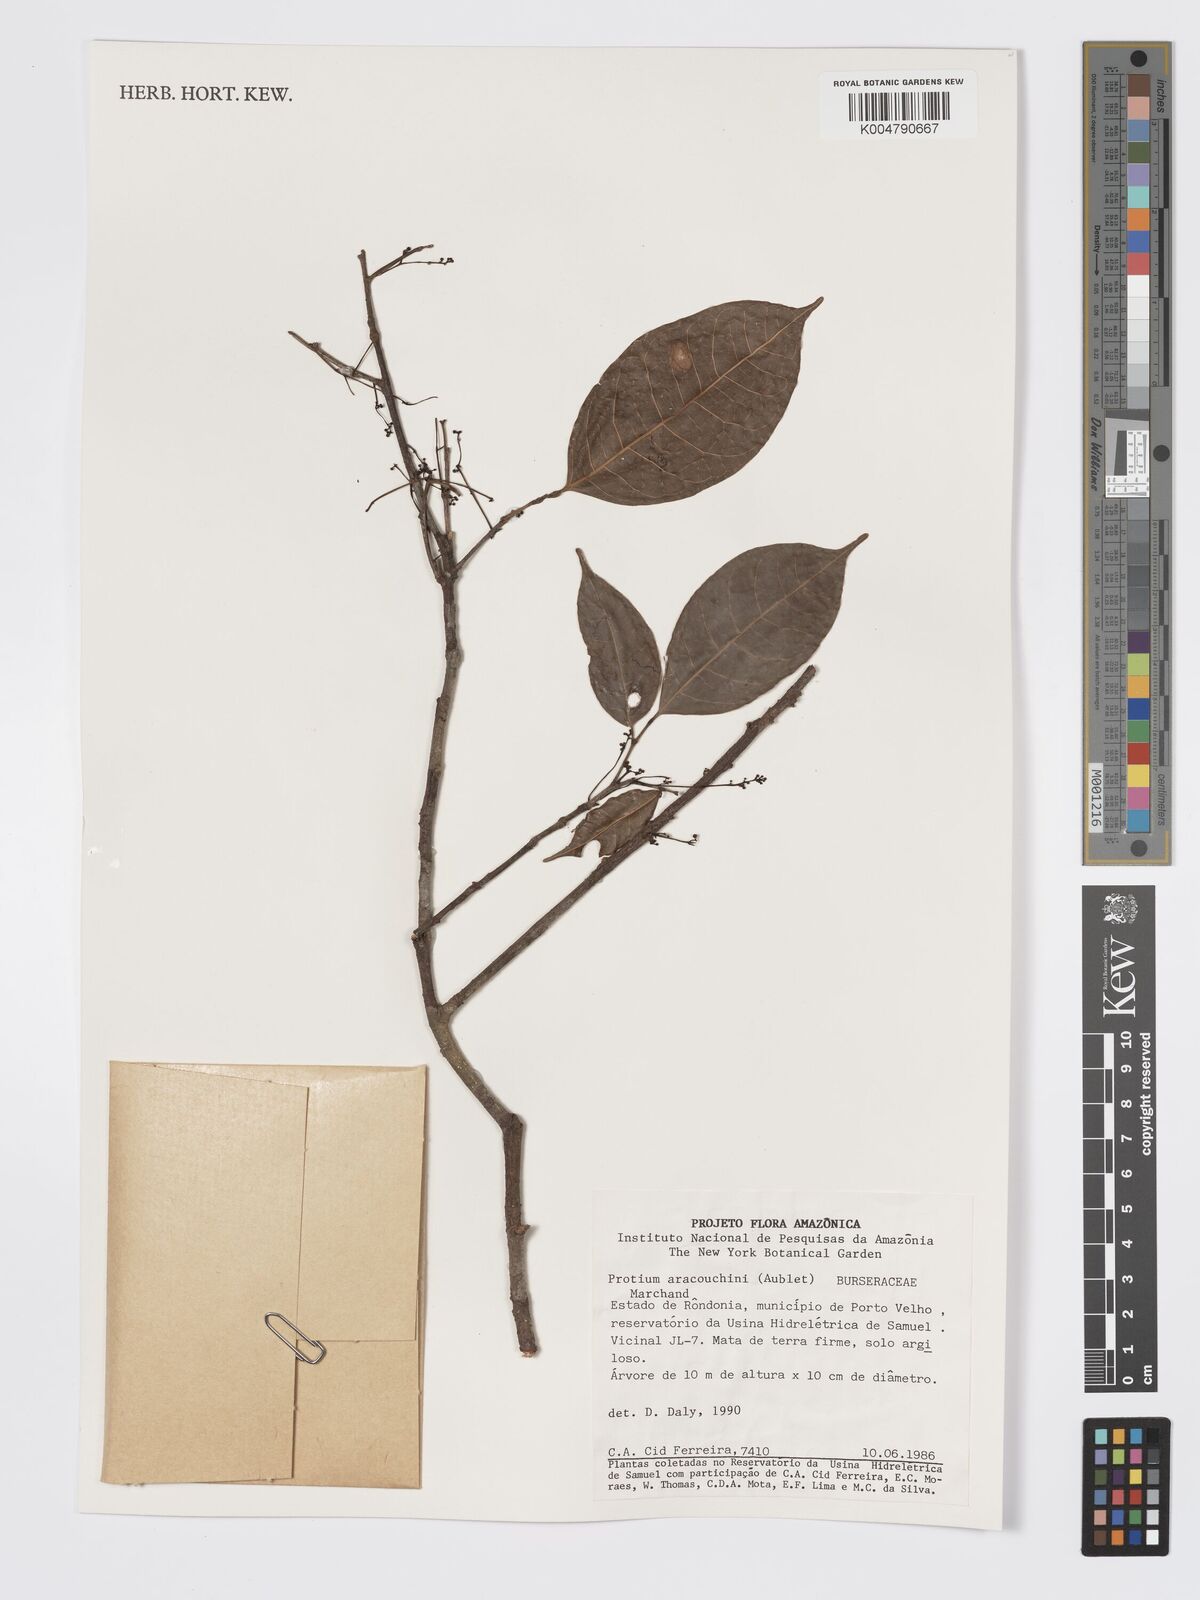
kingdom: Plantae
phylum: Tracheophyta
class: Magnoliopsida
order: Sapindales
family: Burseraceae
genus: Protium
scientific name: Protium aracouchini
